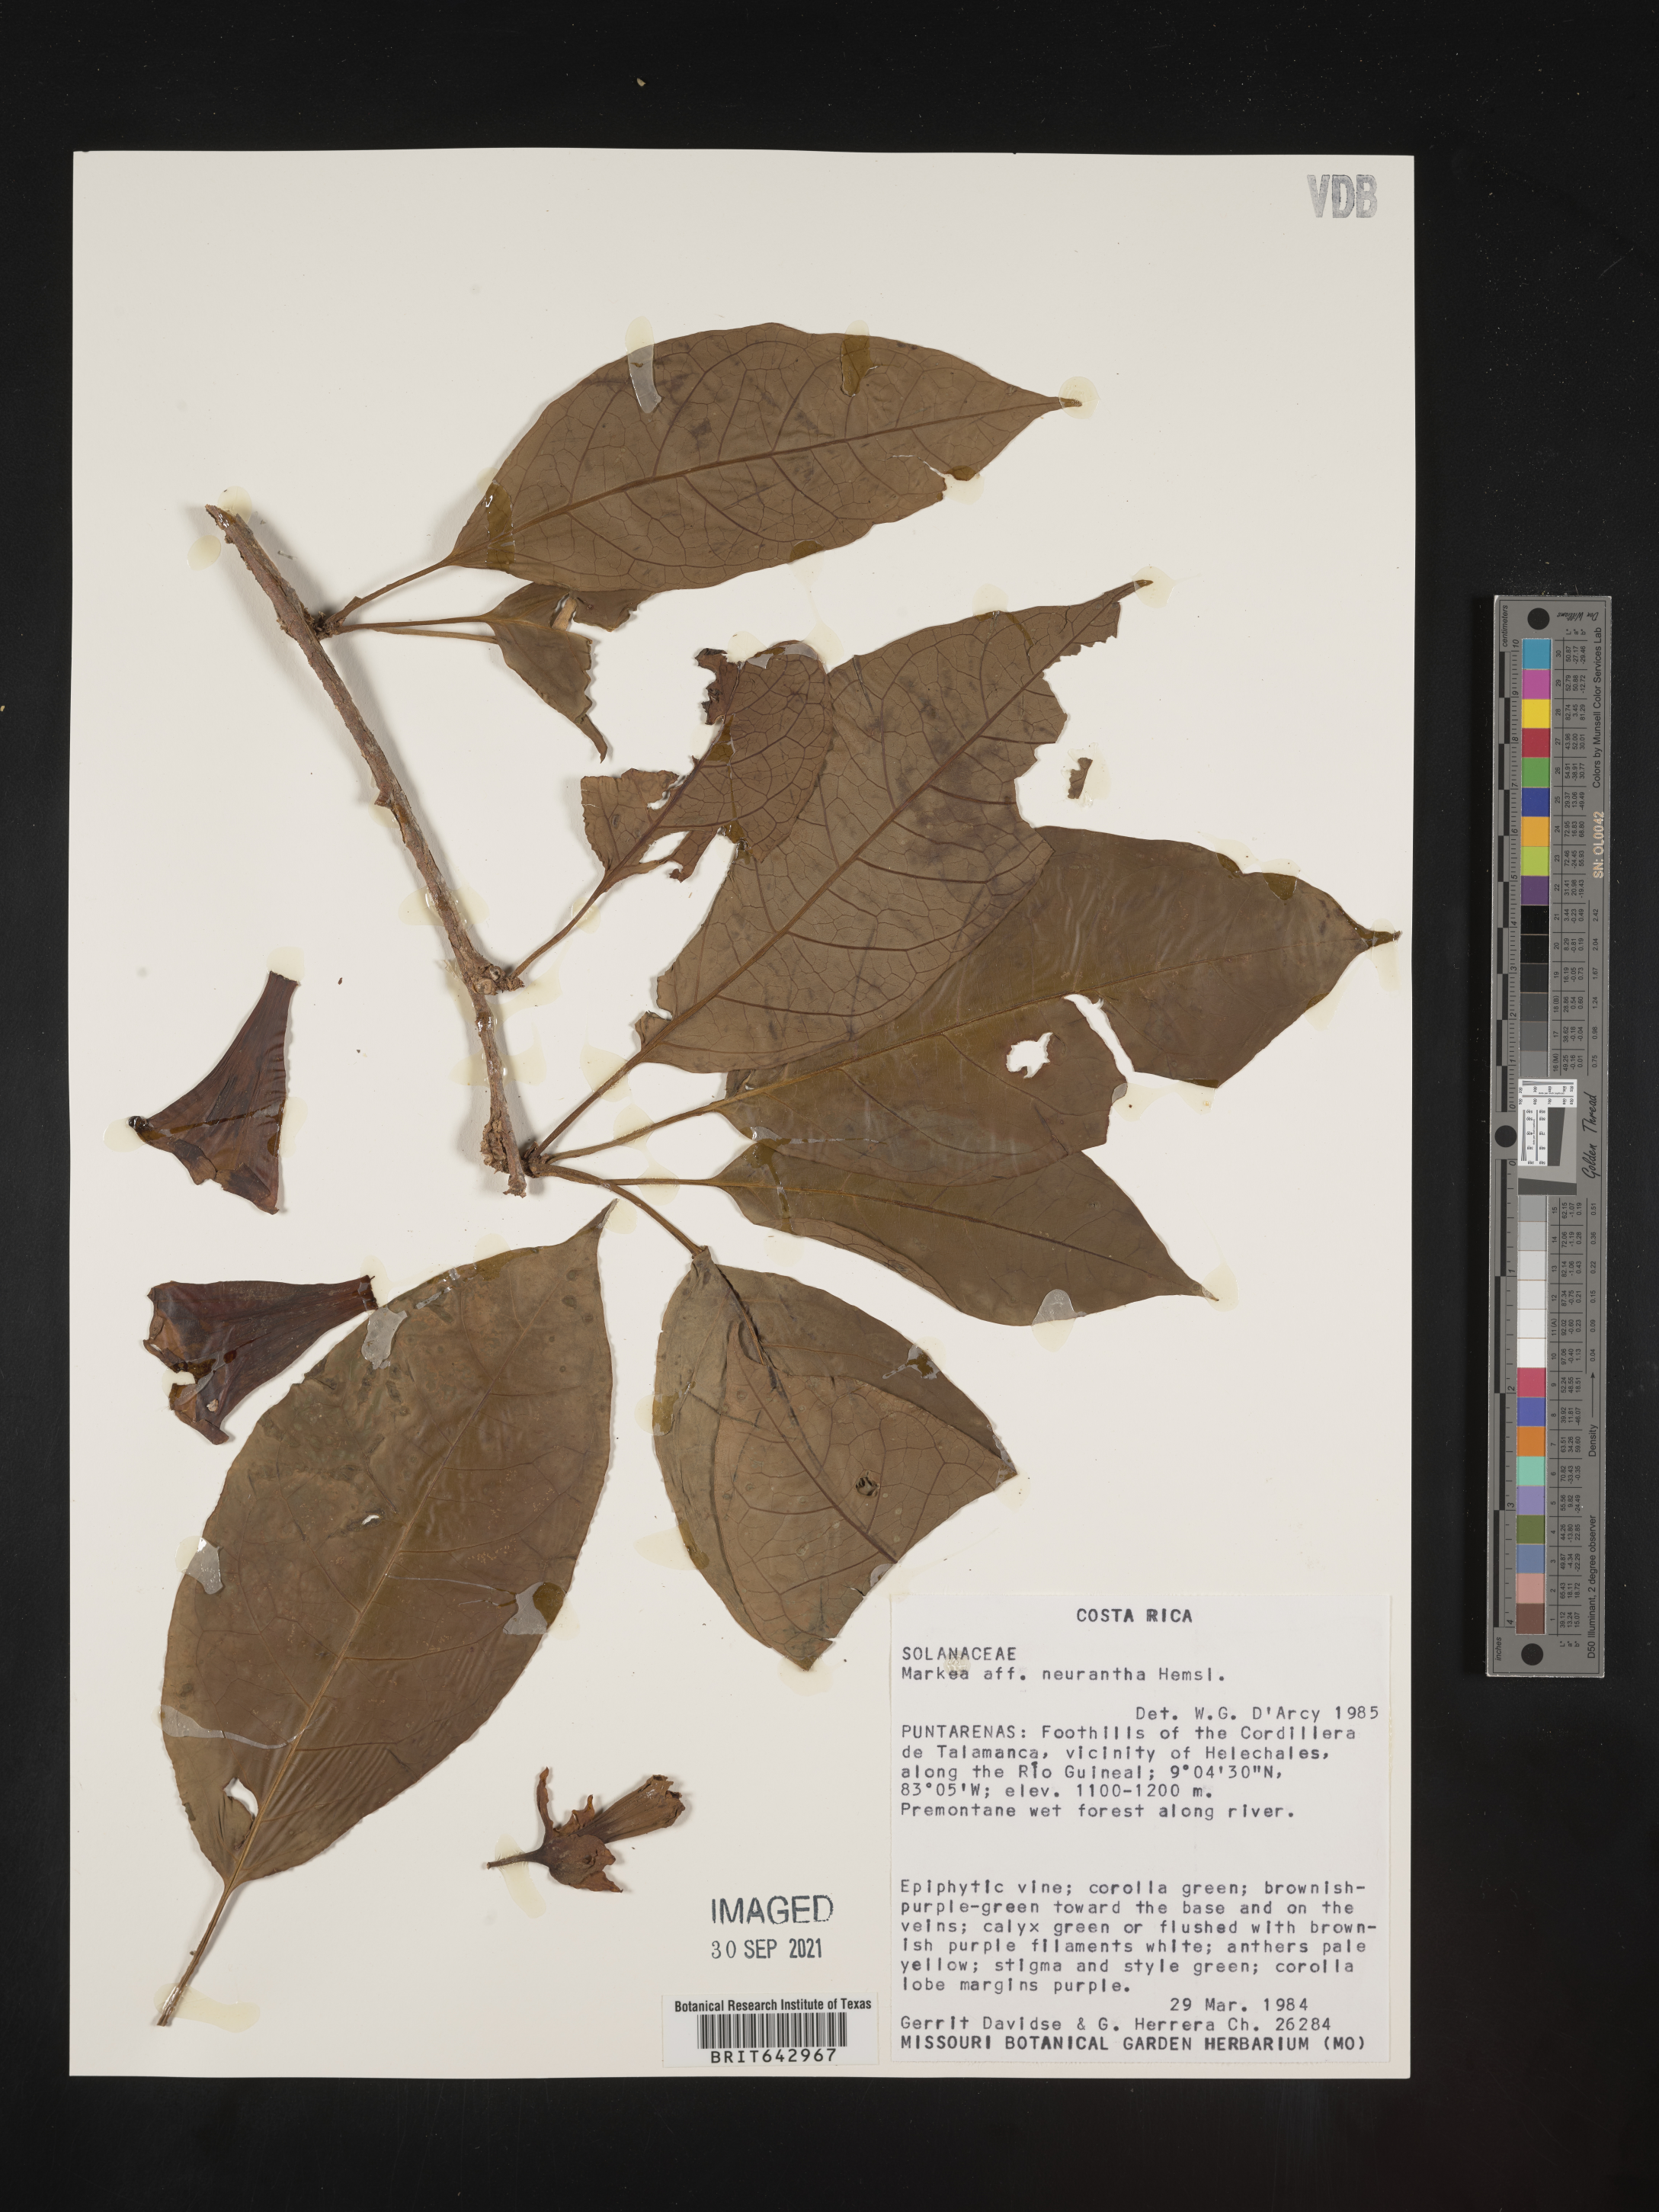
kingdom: Plantae
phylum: Tracheophyta
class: Magnoliopsida
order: Solanales
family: Solanaceae
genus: Markea
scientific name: Markea
